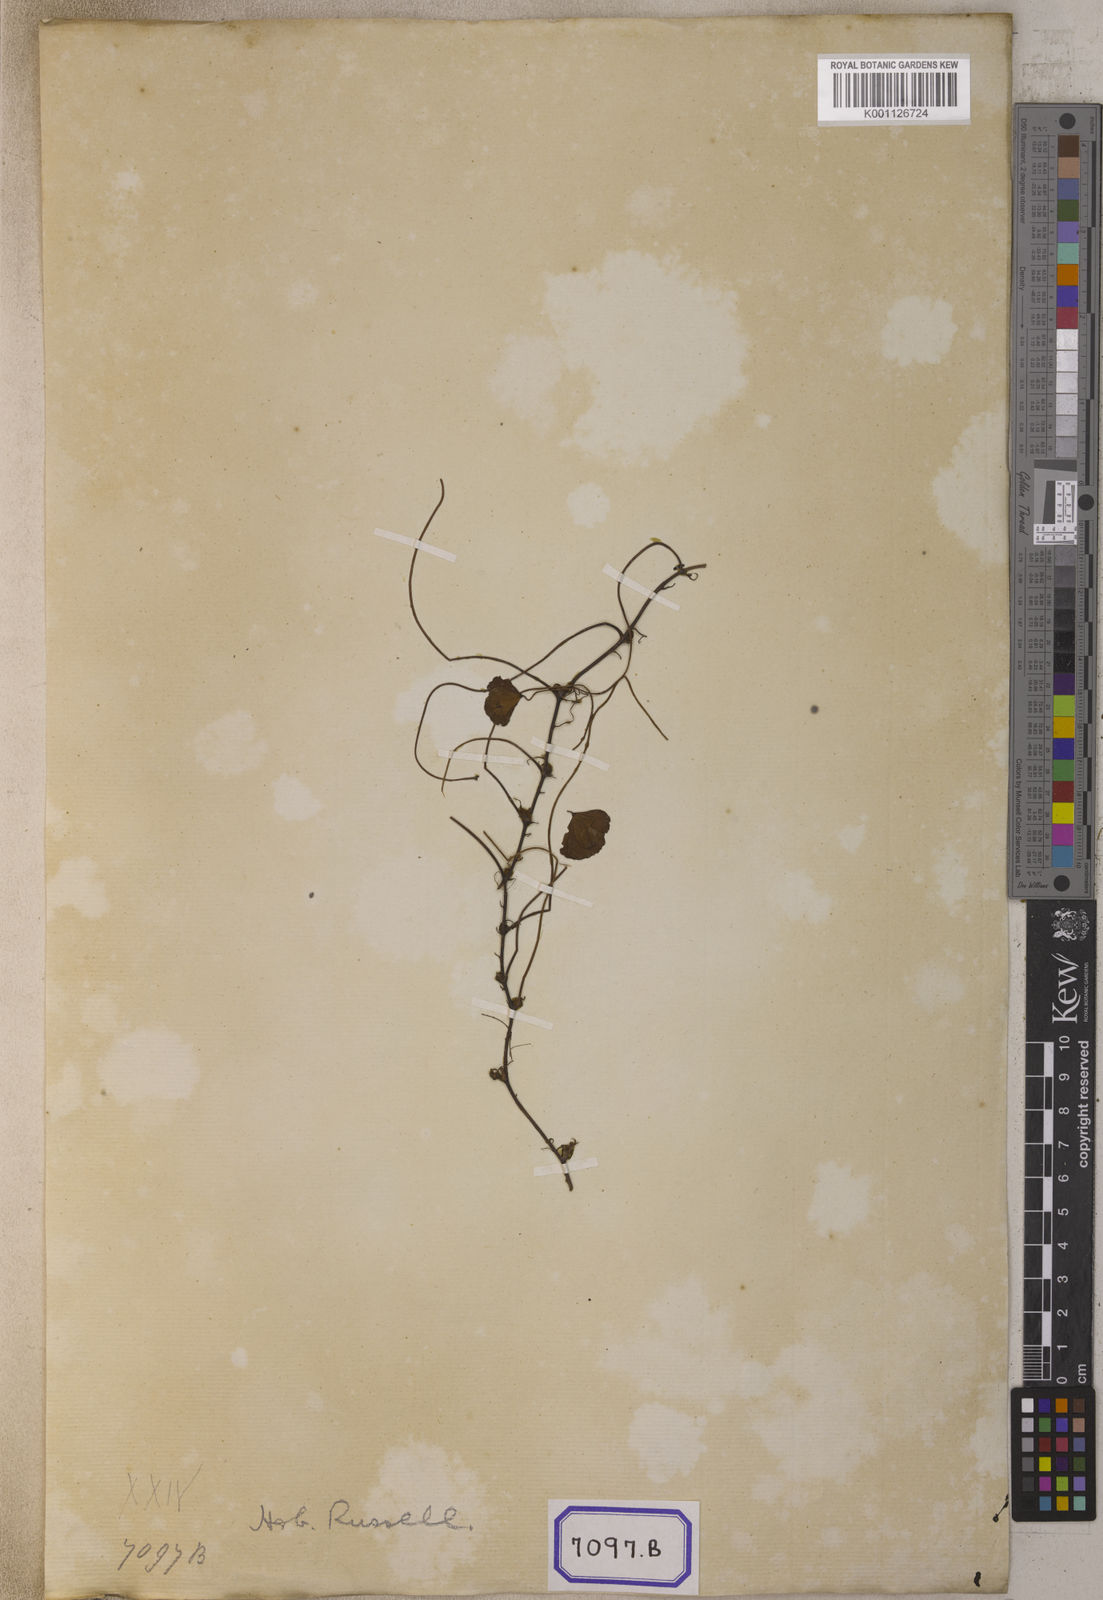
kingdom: Plantae
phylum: Tracheophyta
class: Polypodiopsida
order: Salviniales
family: Marsileaceae
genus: Marsilea
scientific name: Marsilea quadrifolia
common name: Water shamrock
